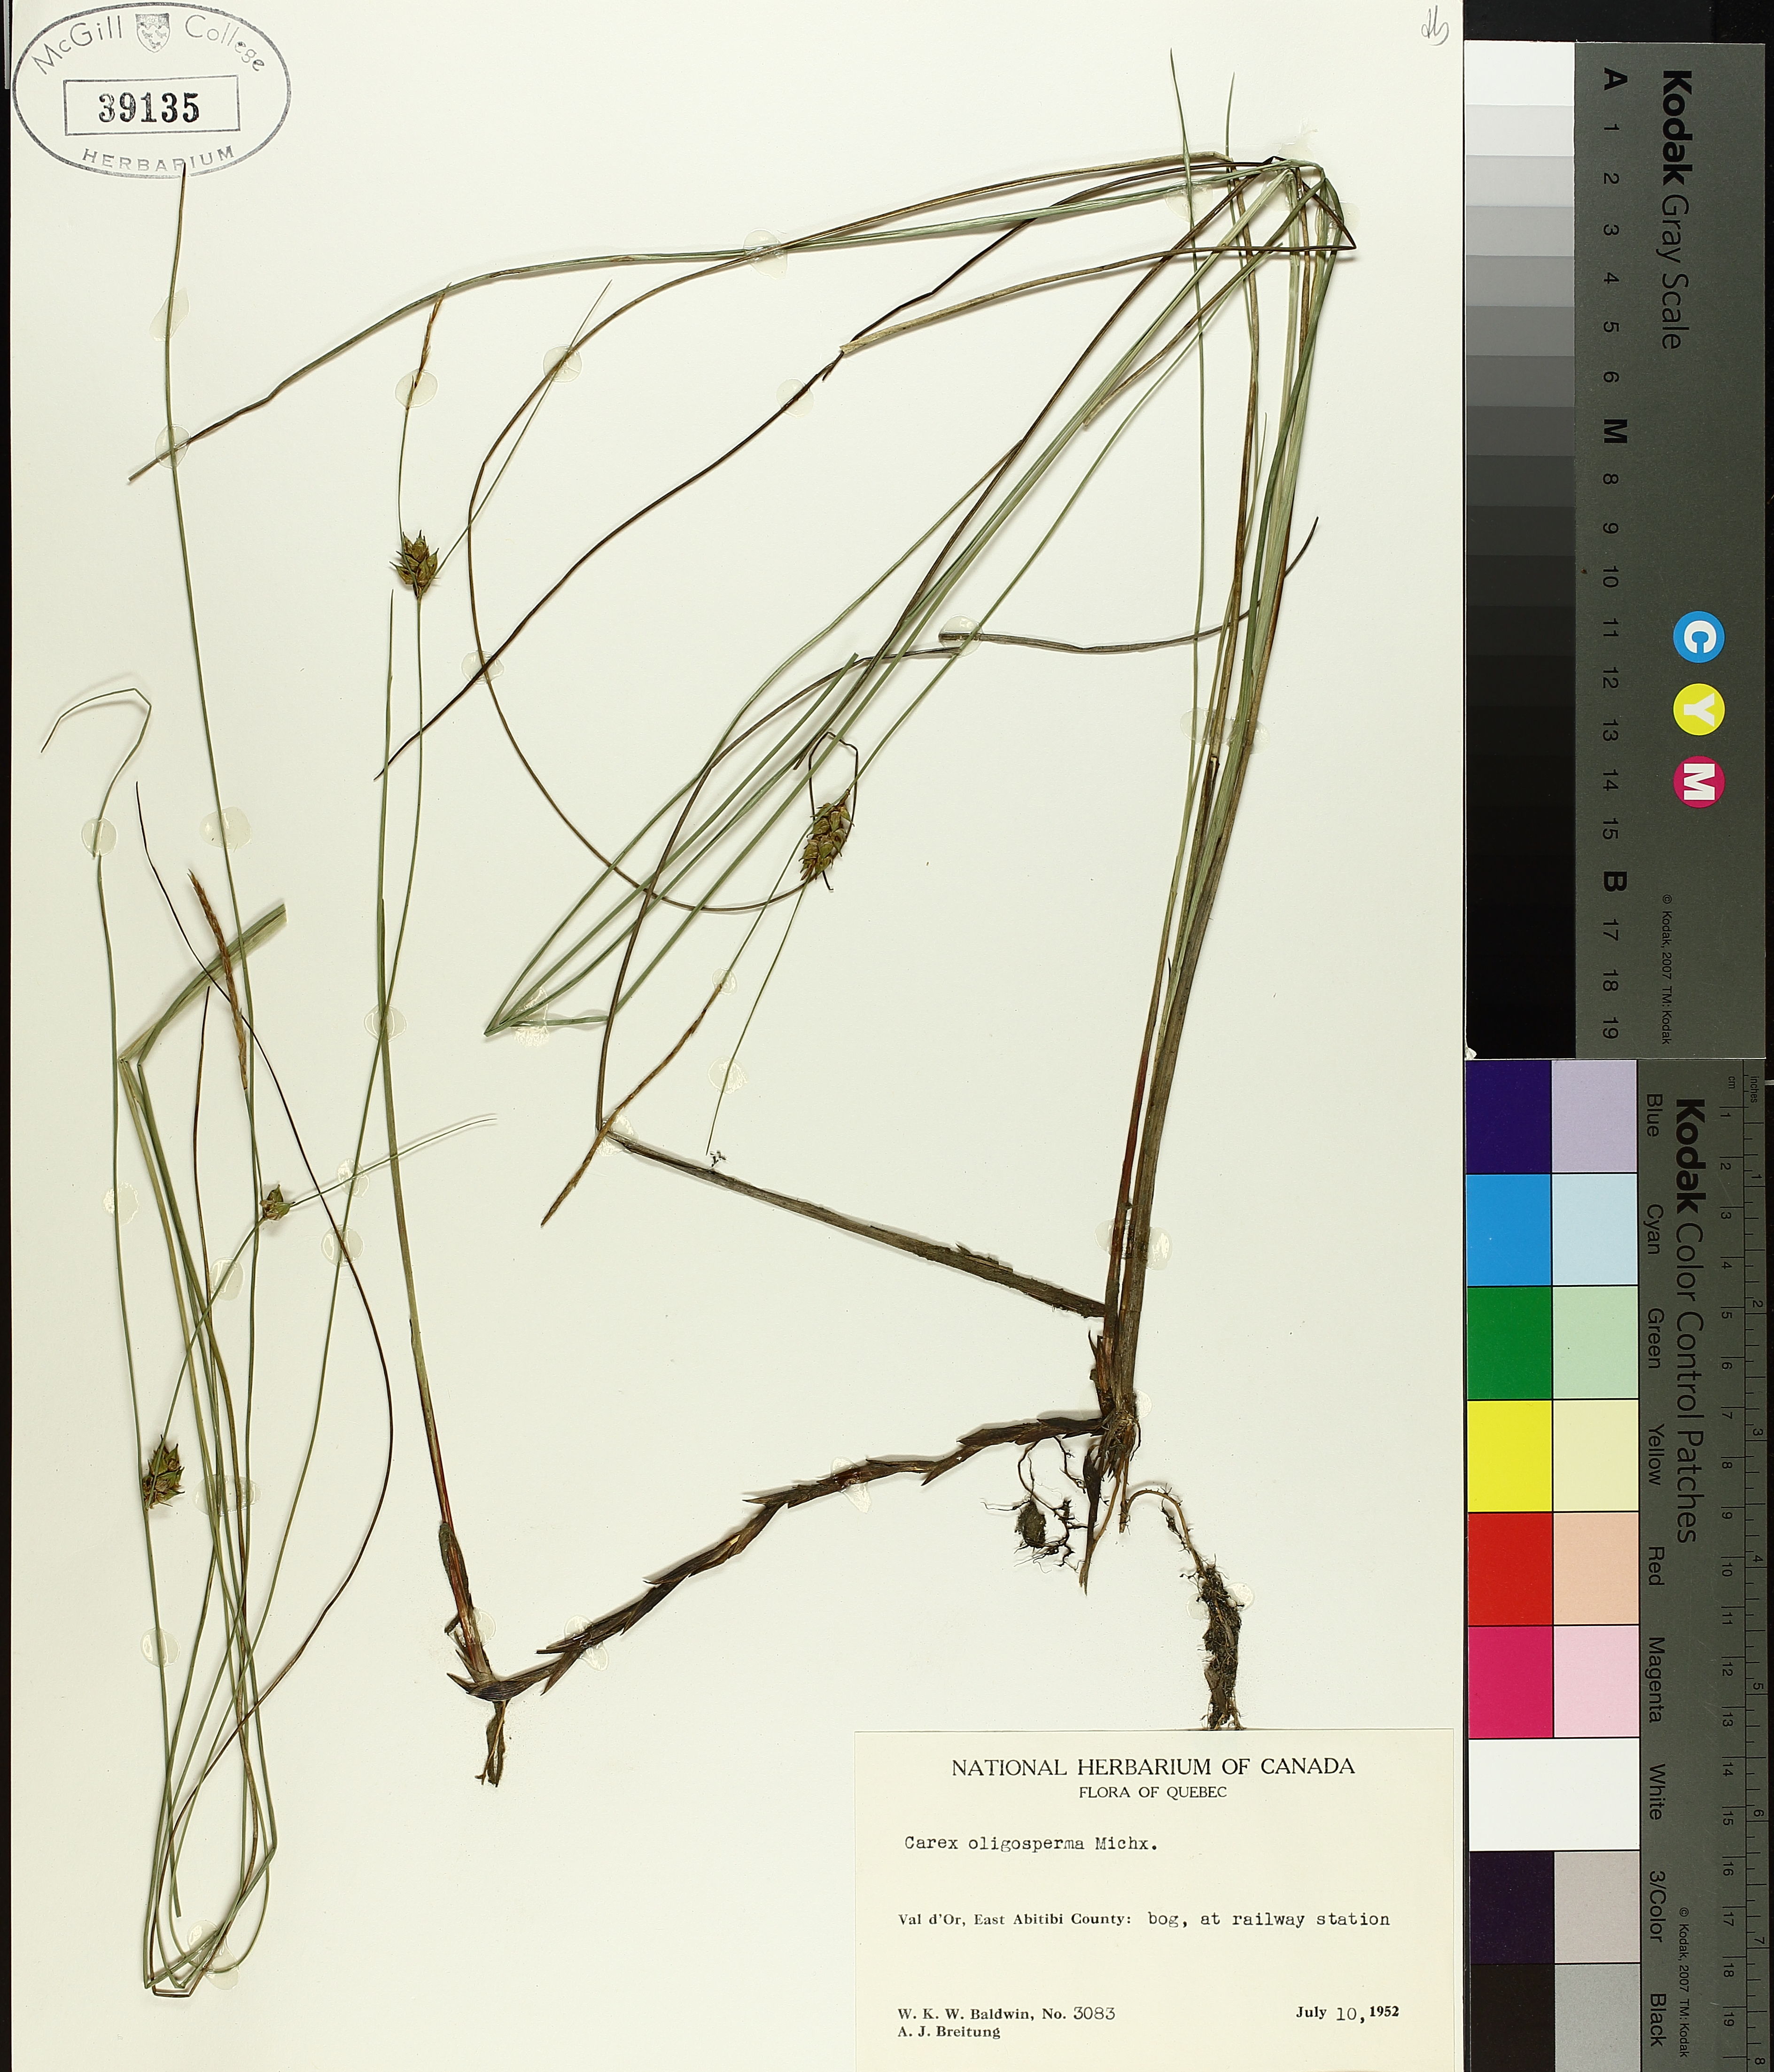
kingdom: Plantae
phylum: Tracheophyta
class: Liliopsida
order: Poales
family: Cyperaceae
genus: Carex
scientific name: Carex oligosperma
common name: Few-seed sedge
